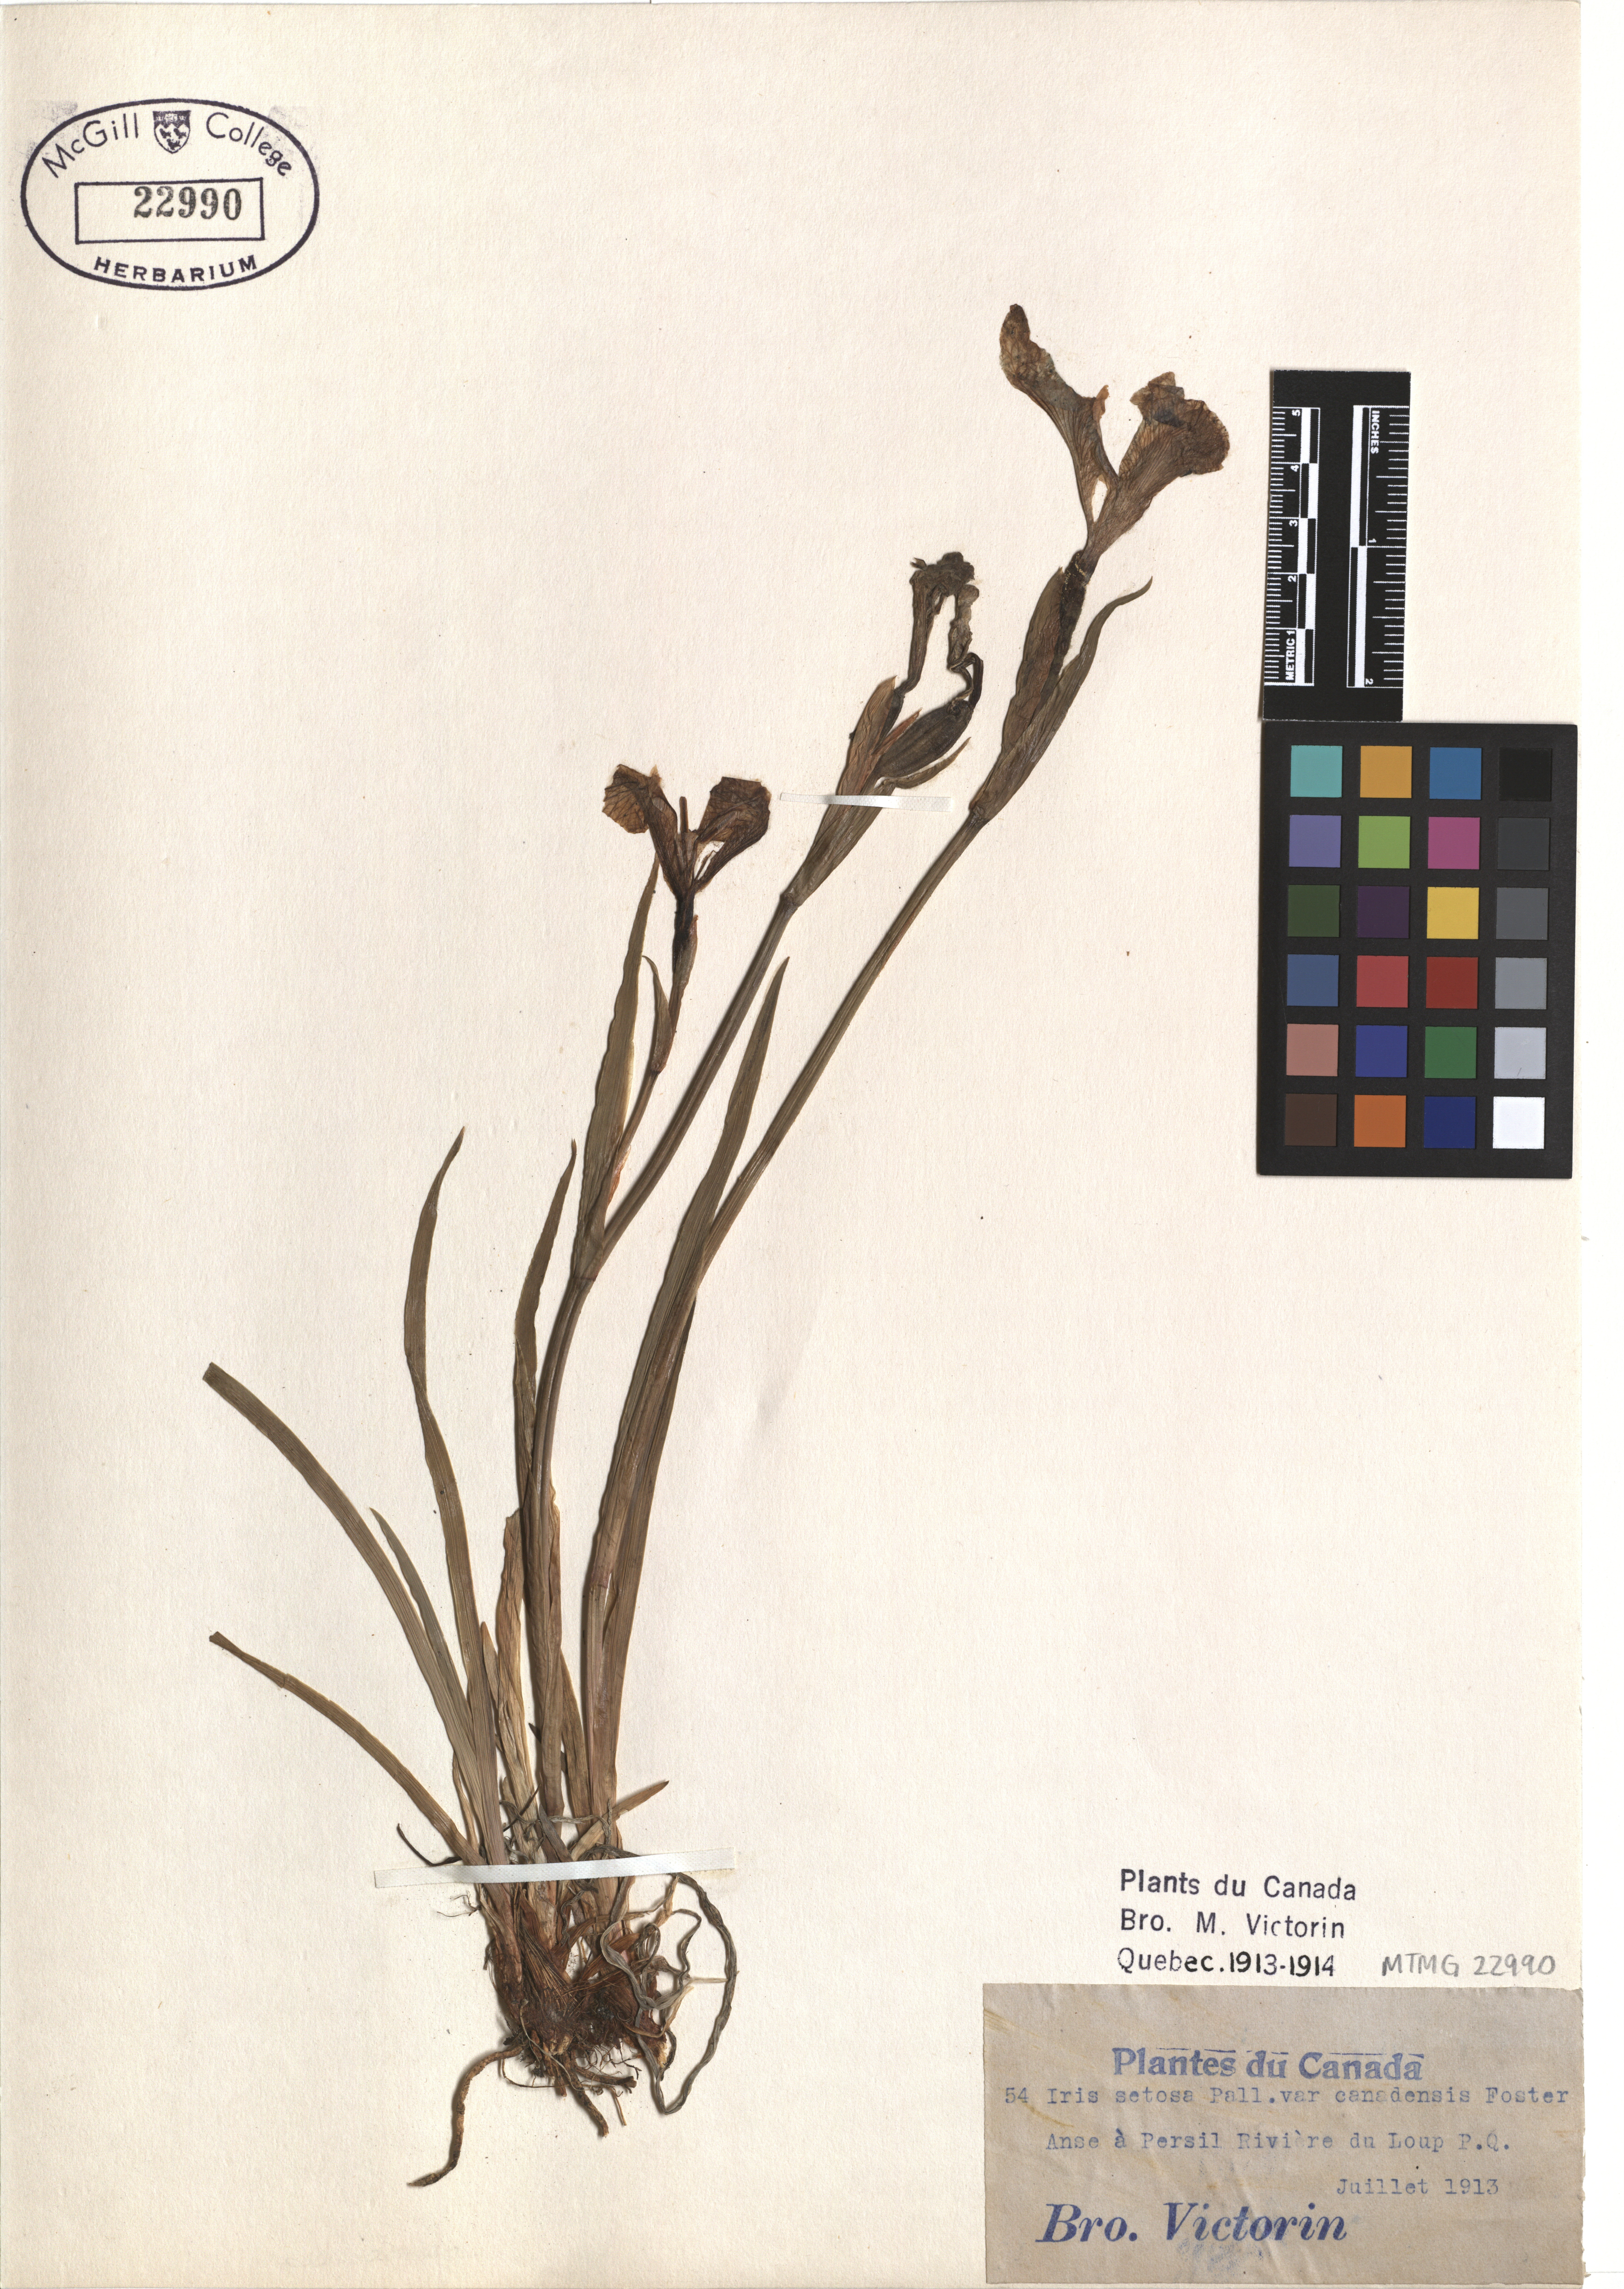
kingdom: Plantae
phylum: Tracheophyta
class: Liliopsida
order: Asparagales
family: Iridaceae
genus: Iris
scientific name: Iris hookeri
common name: Canada beach-head iris
